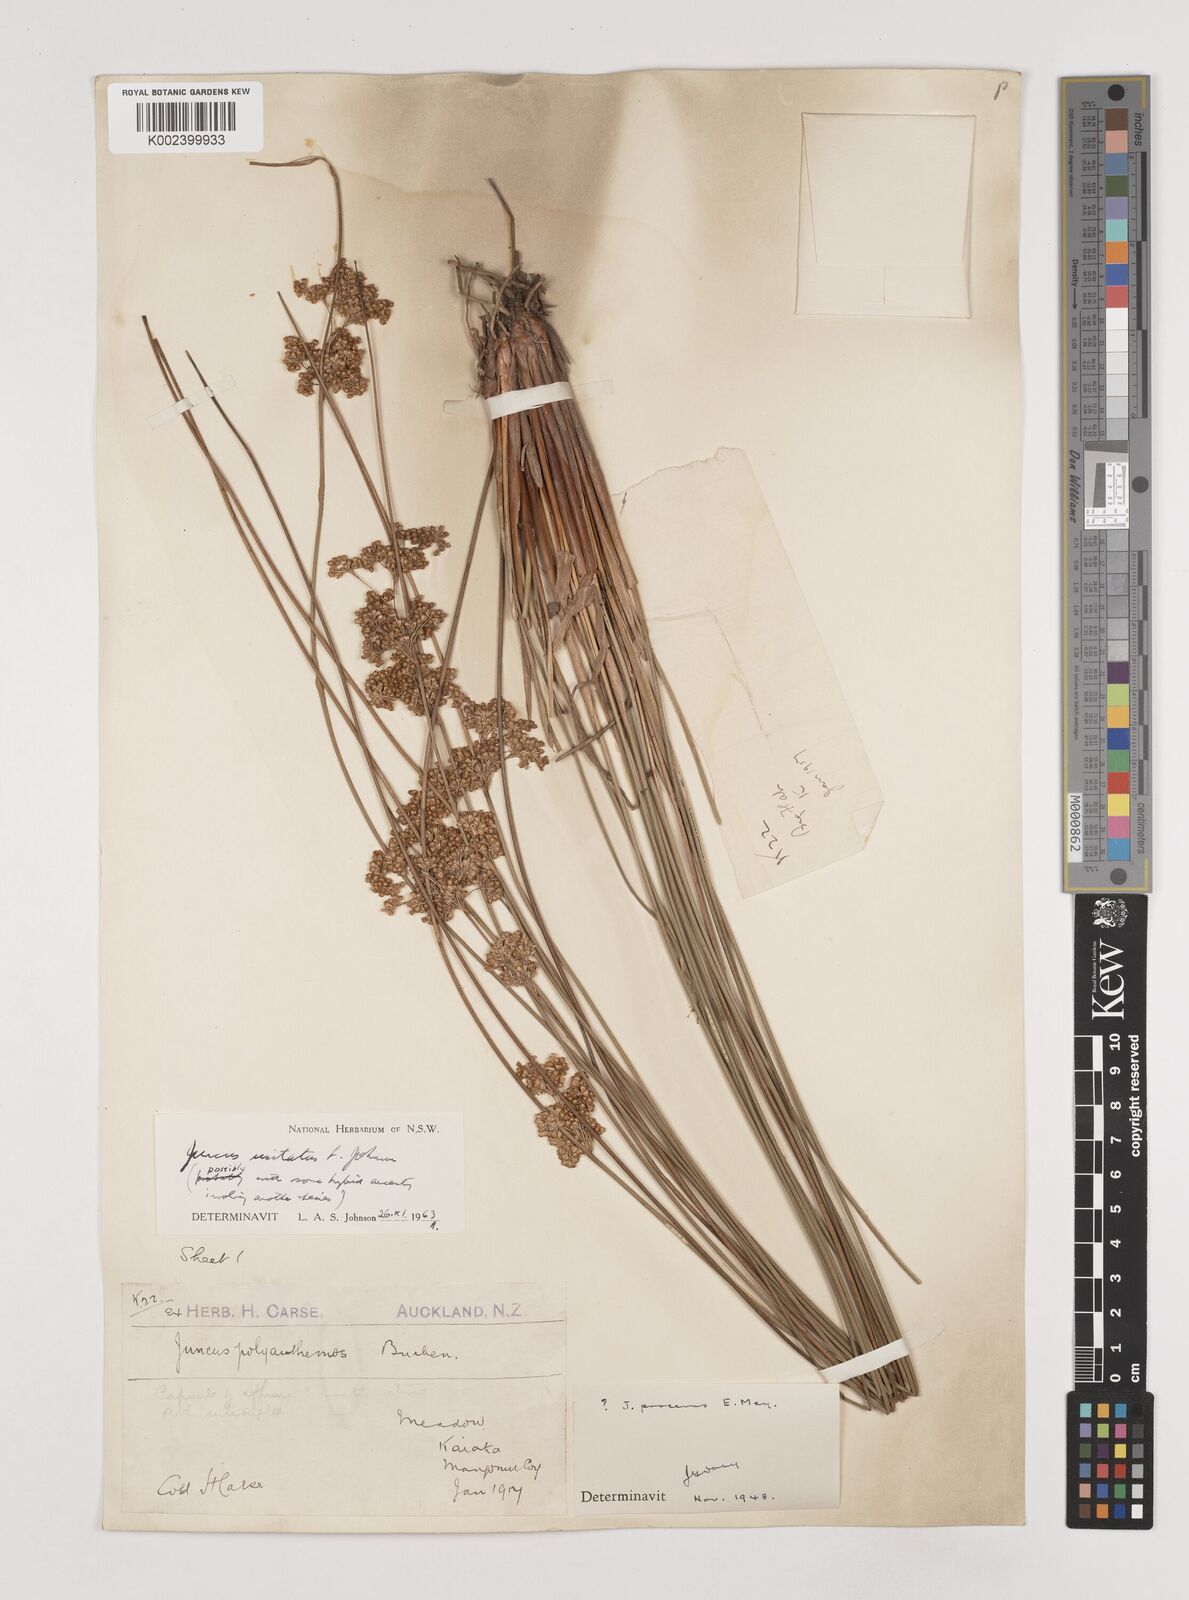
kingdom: Plantae
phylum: Tracheophyta
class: Liliopsida
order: Poales
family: Juncaceae
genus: Juncus
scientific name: Juncus usitatus
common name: Rush
